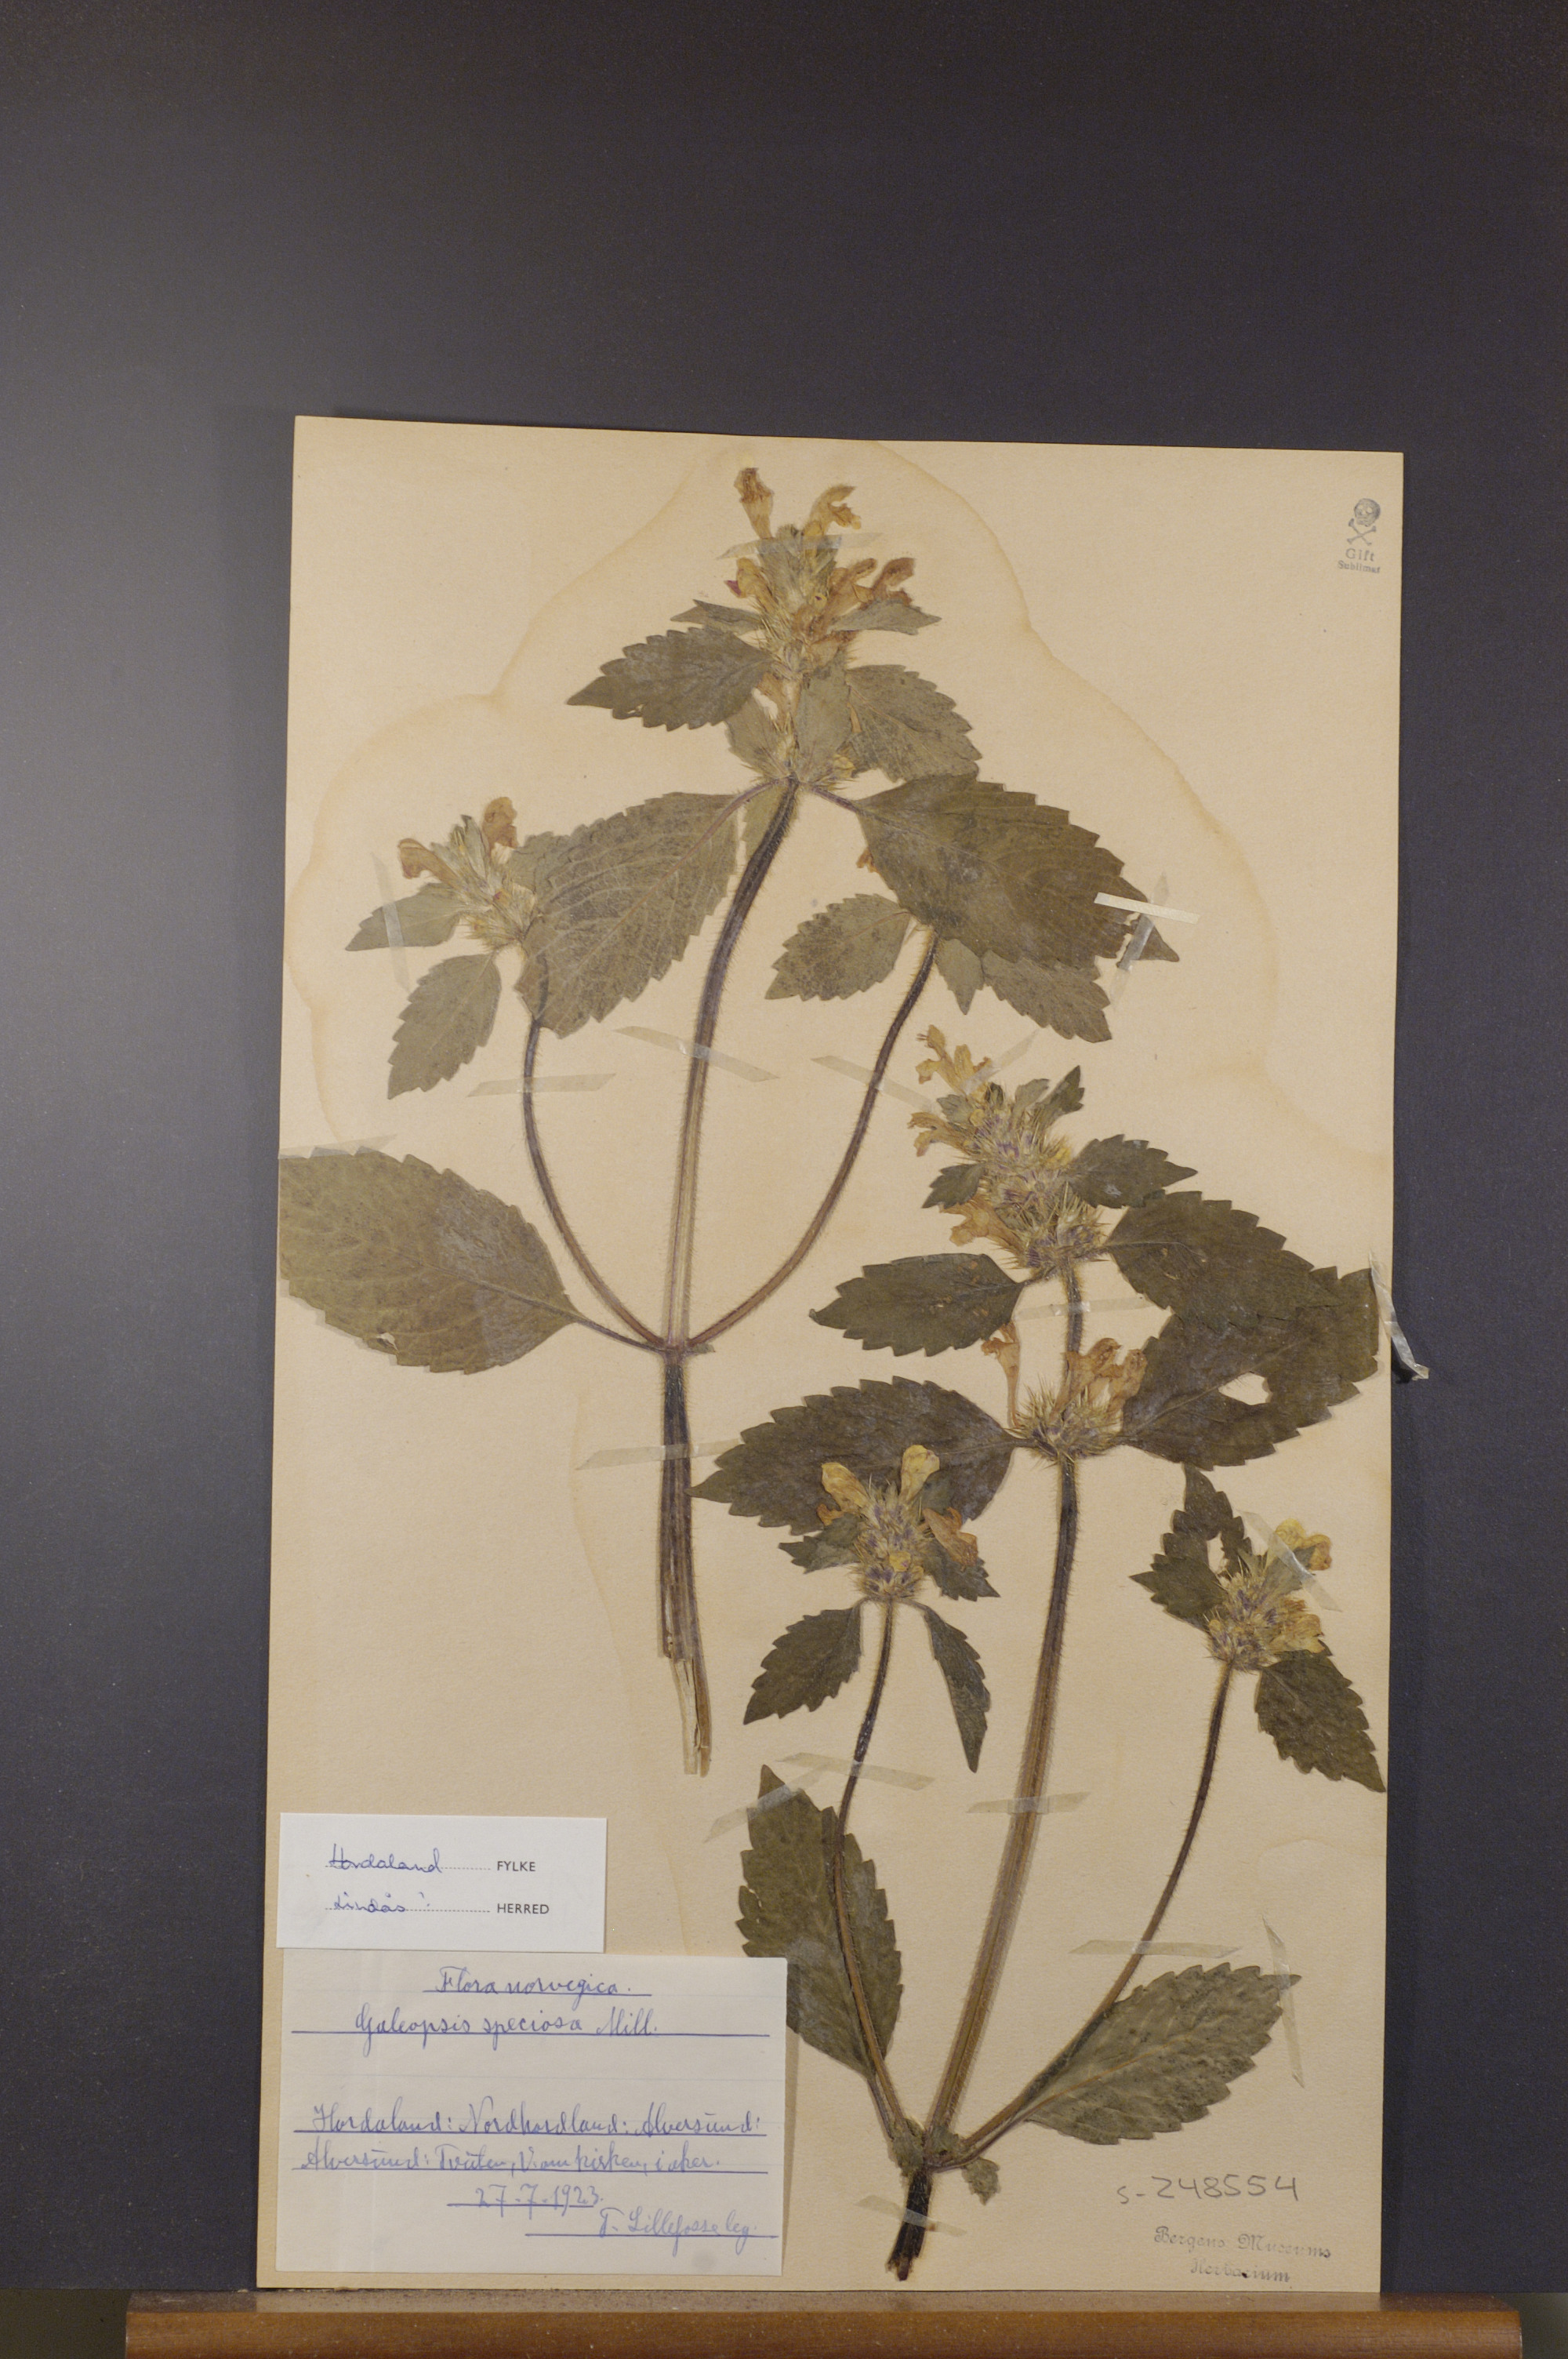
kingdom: Plantae
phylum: Tracheophyta
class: Magnoliopsida
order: Lamiales
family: Lamiaceae
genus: Galeopsis
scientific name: Galeopsis speciosa
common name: Large-flowered hemp-nettle
